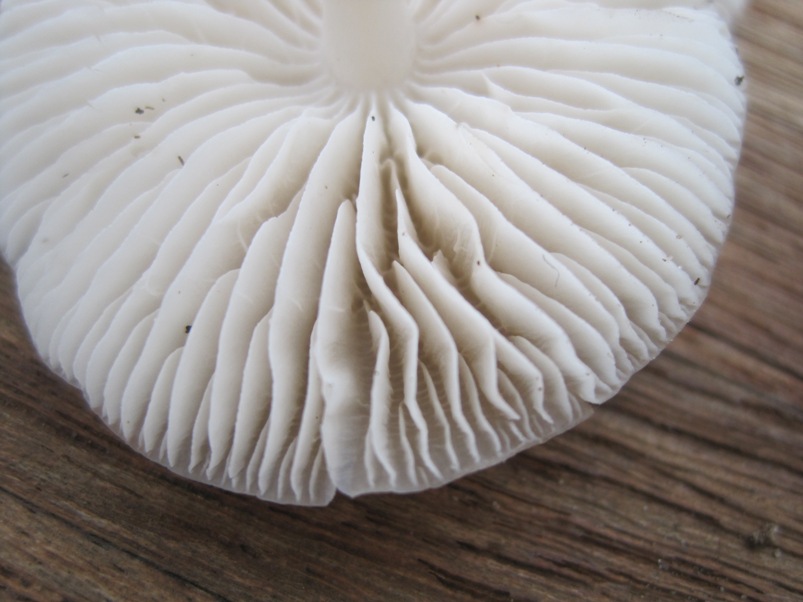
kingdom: Fungi
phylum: Basidiomycota
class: Agaricomycetes
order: Agaricales
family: Mycenaceae
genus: Mycena
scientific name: Mycena galericulata
